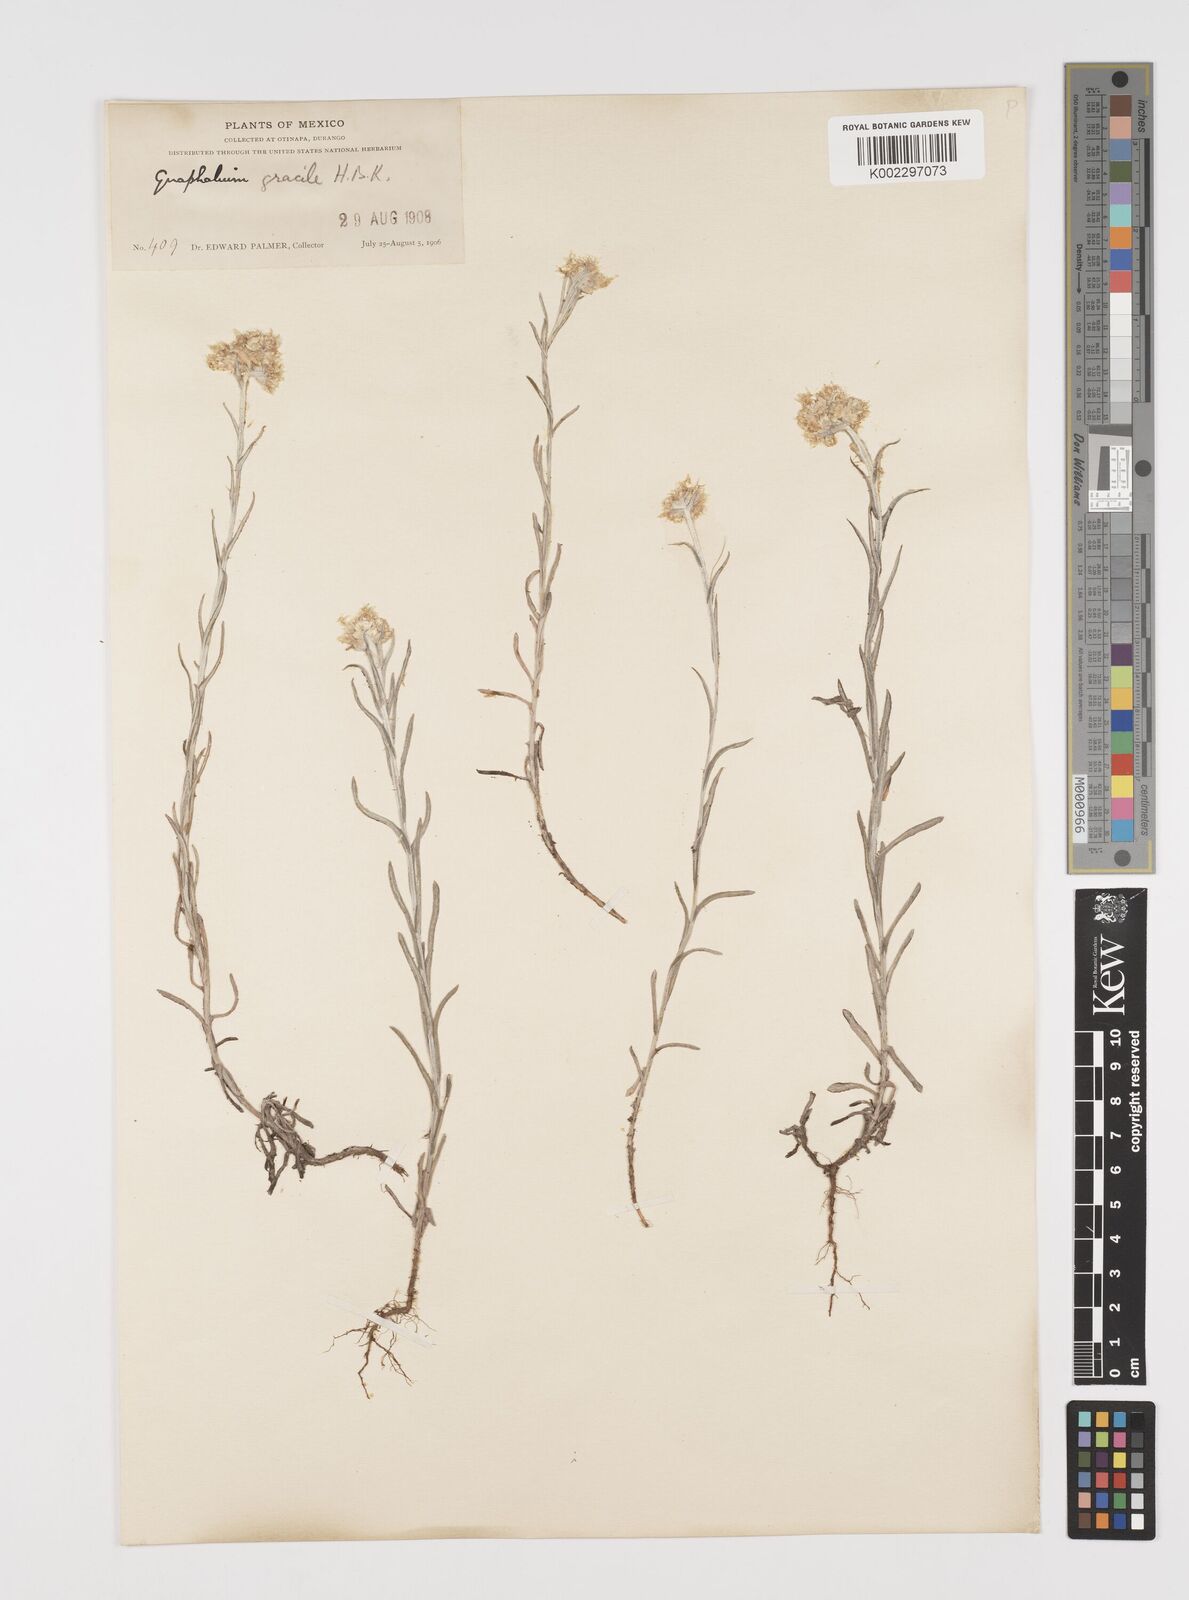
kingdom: Plantae
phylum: Tracheophyta
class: Magnoliopsida
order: Asterales
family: Asteraceae
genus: Pseudognaphalium
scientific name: Pseudognaphalium
